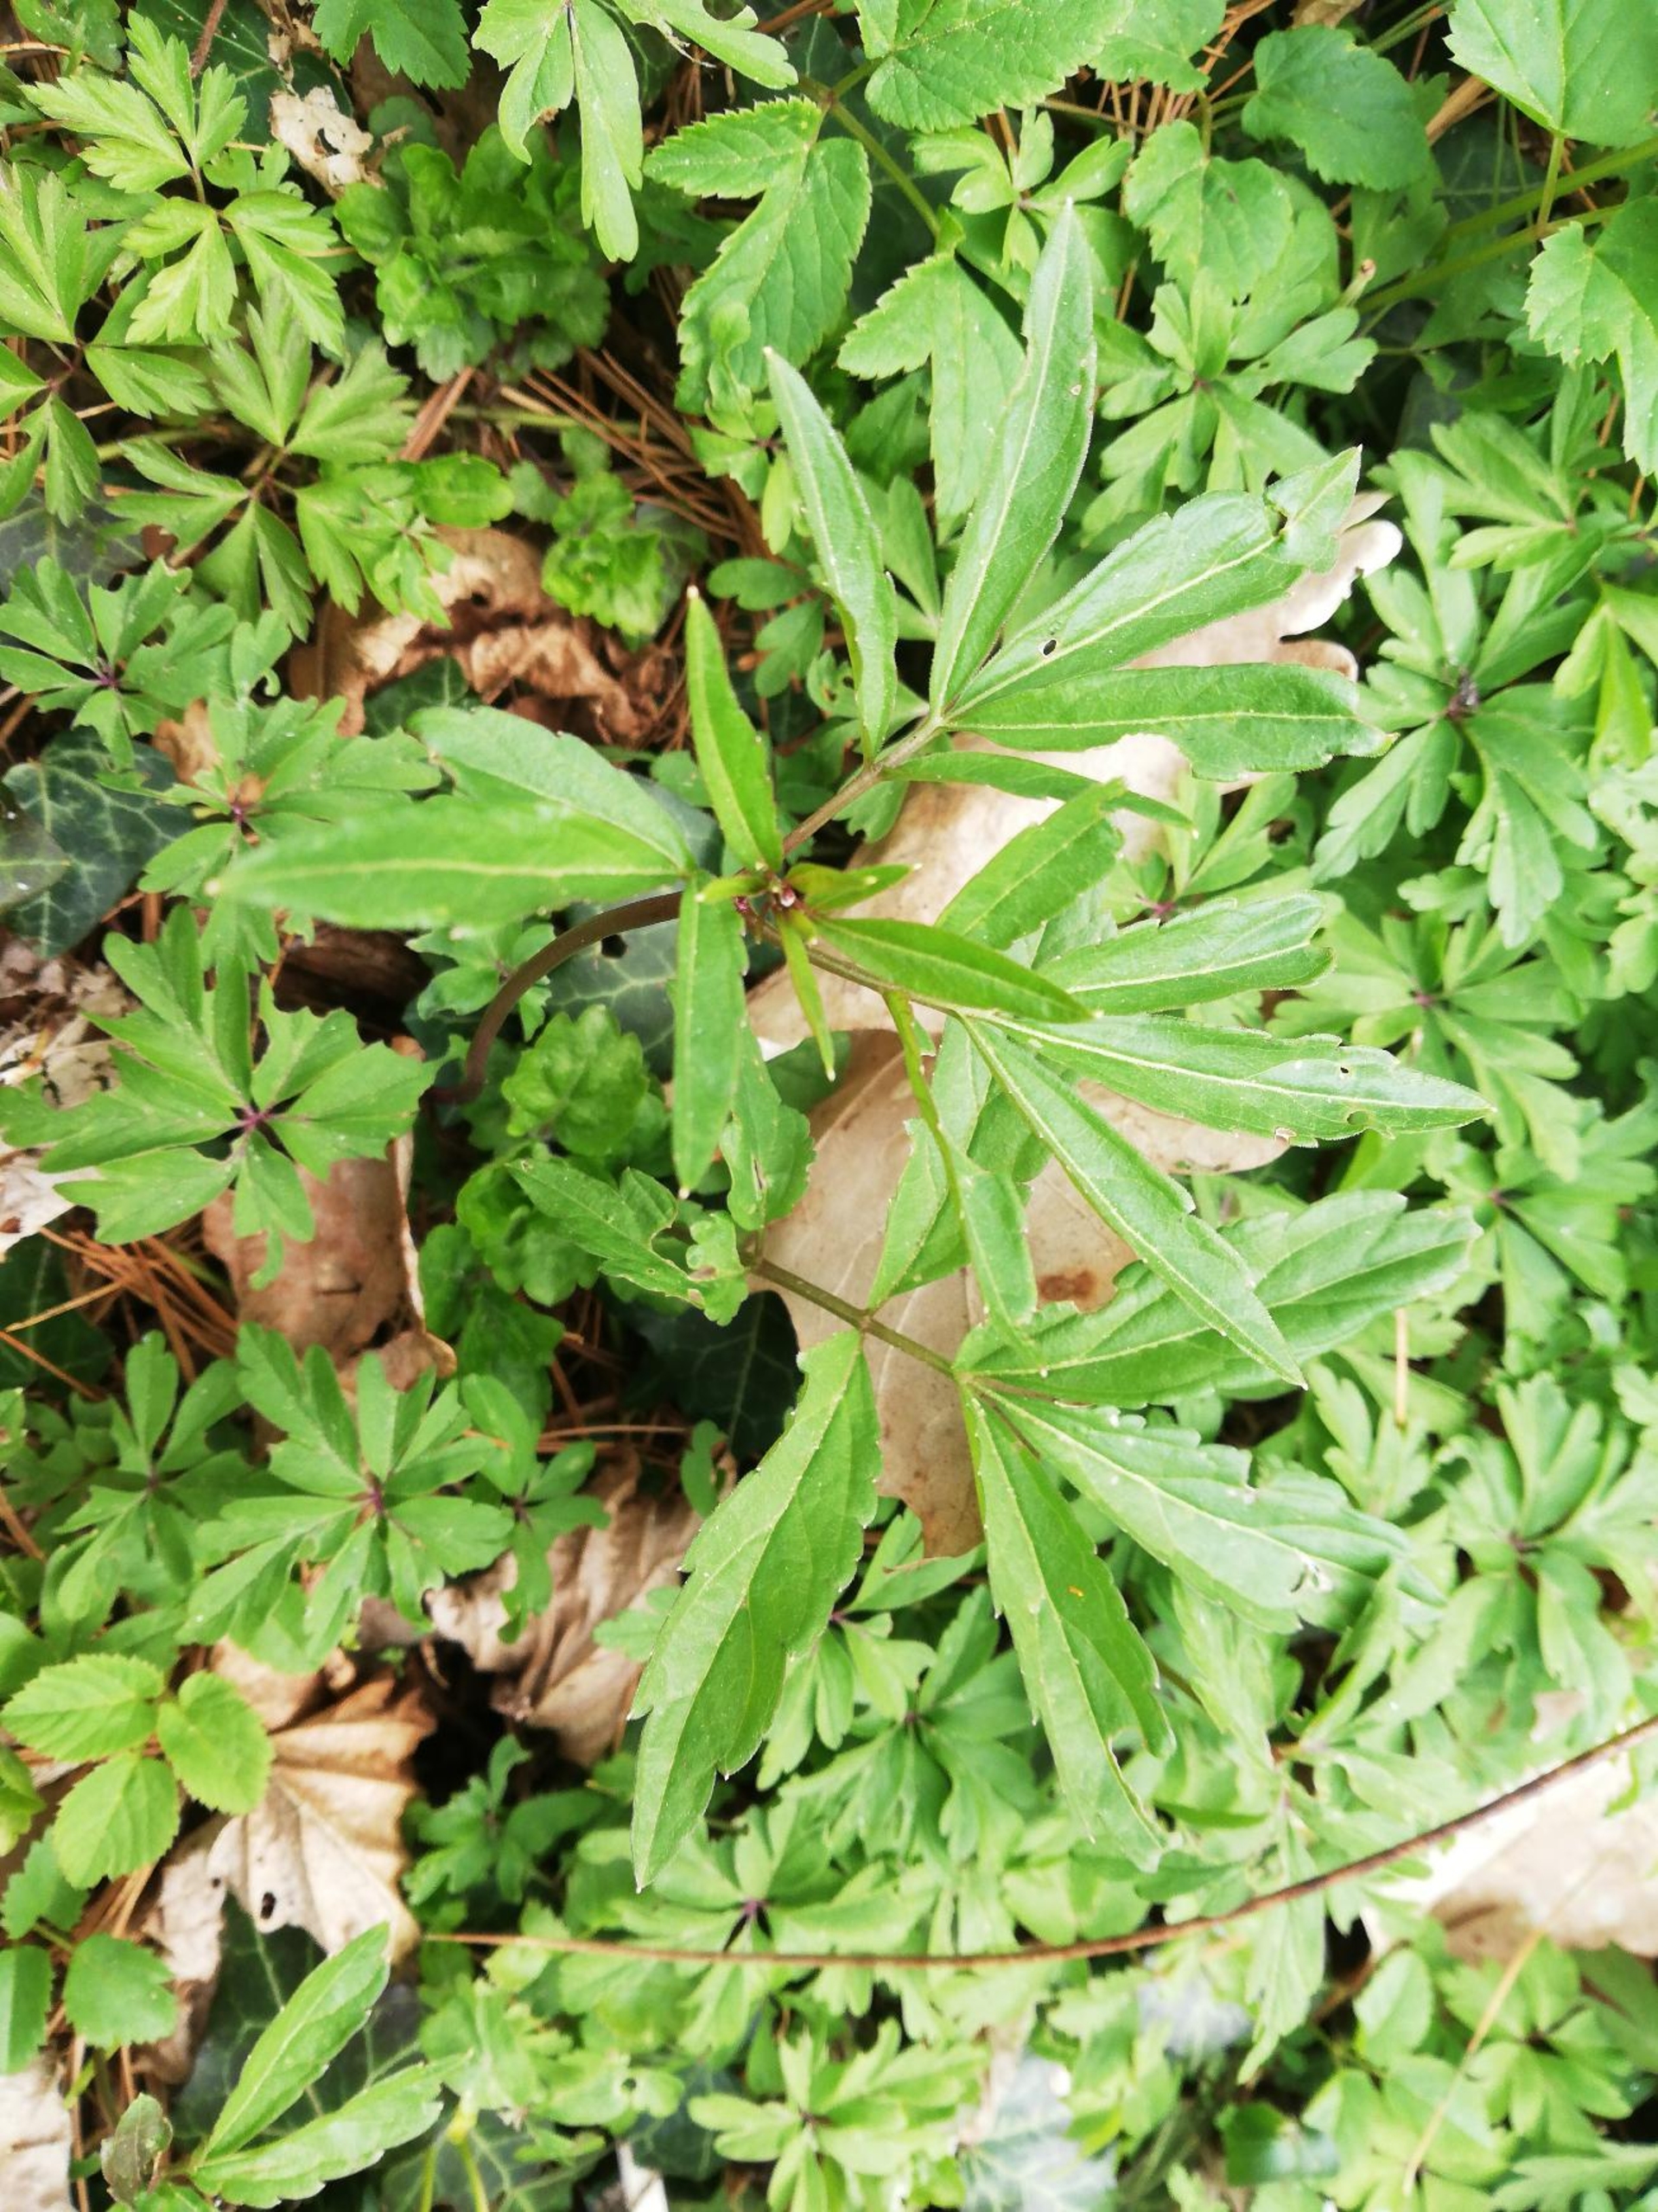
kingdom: Plantae
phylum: Tracheophyta
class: Magnoliopsida
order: Brassicales
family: Brassicaceae
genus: Cardamine
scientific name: Cardamine bulbifera
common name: Tandrod
